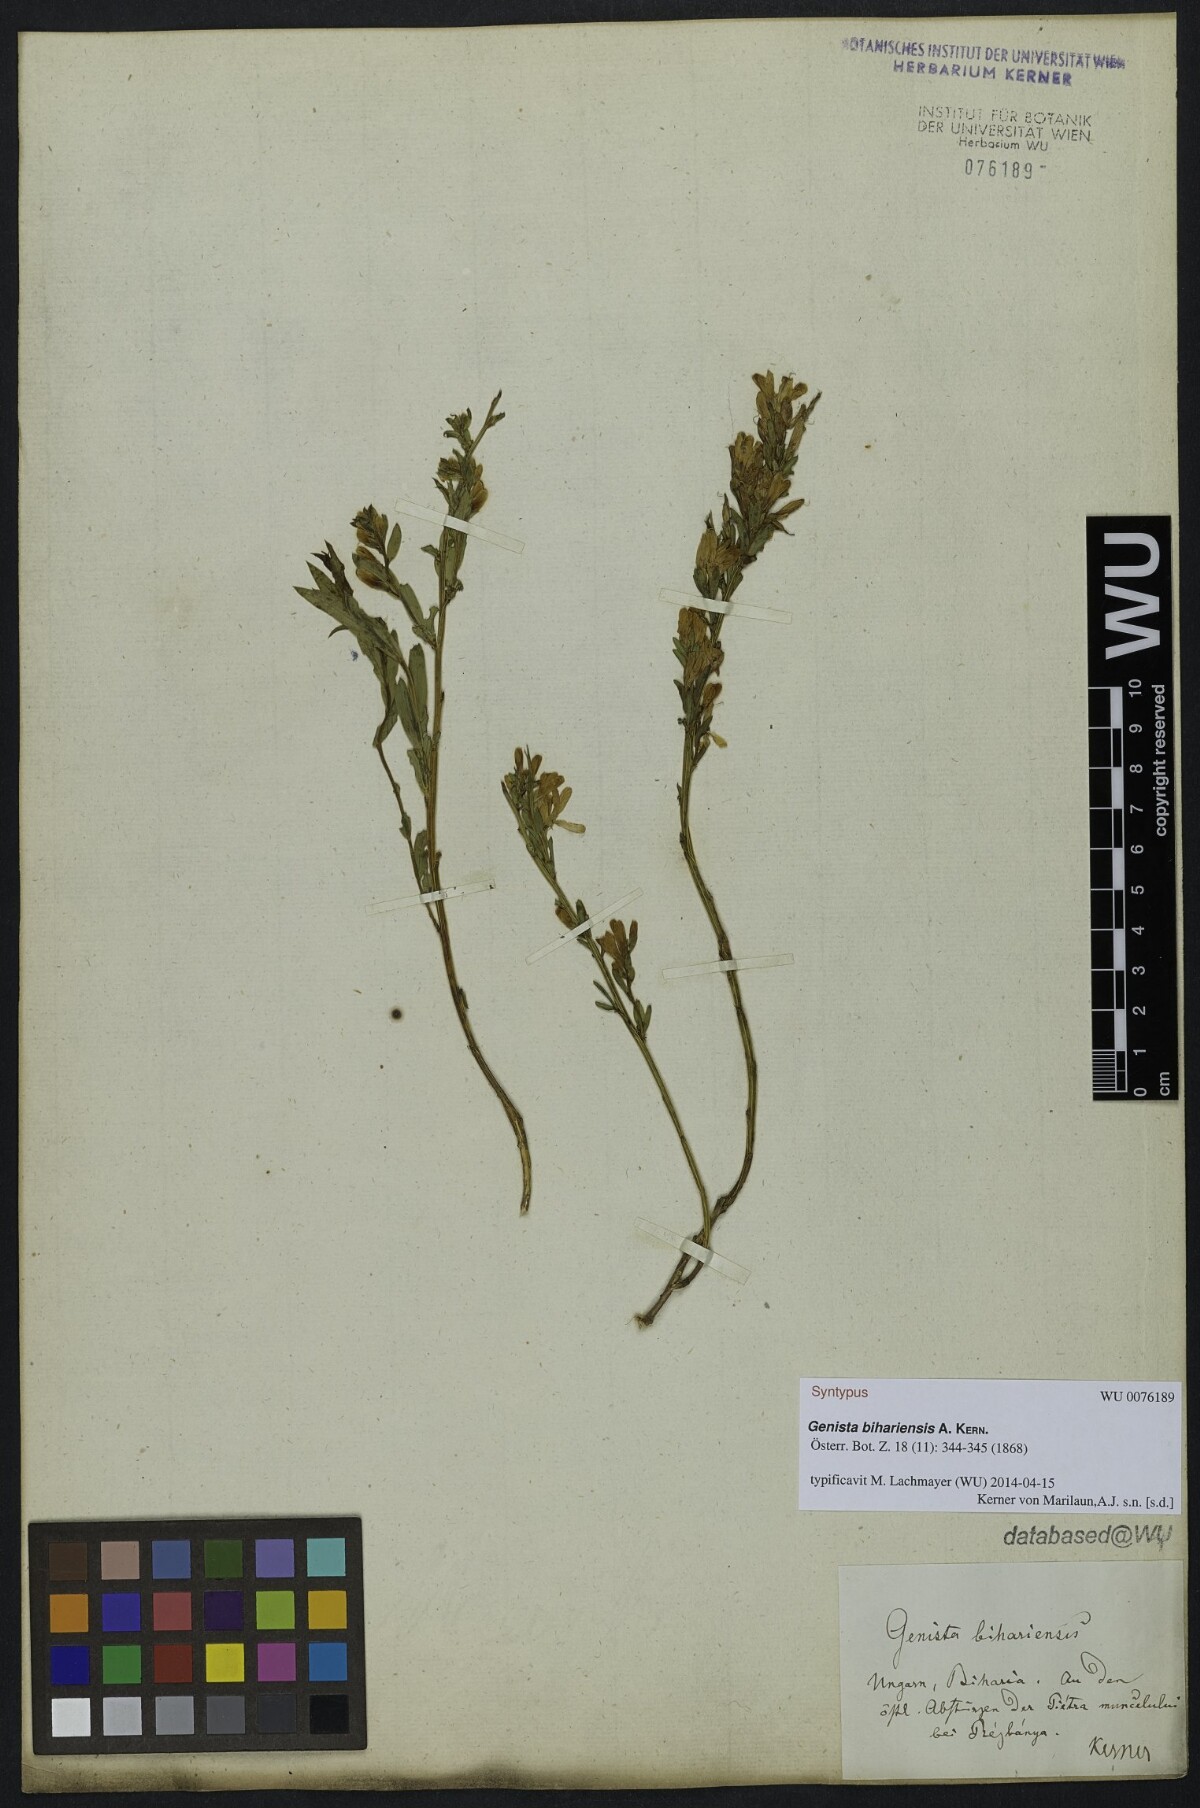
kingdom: Plantae
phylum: Tracheophyta
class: Magnoliopsida
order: Fabales
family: Fabaceae
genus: Genista
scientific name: Genista
